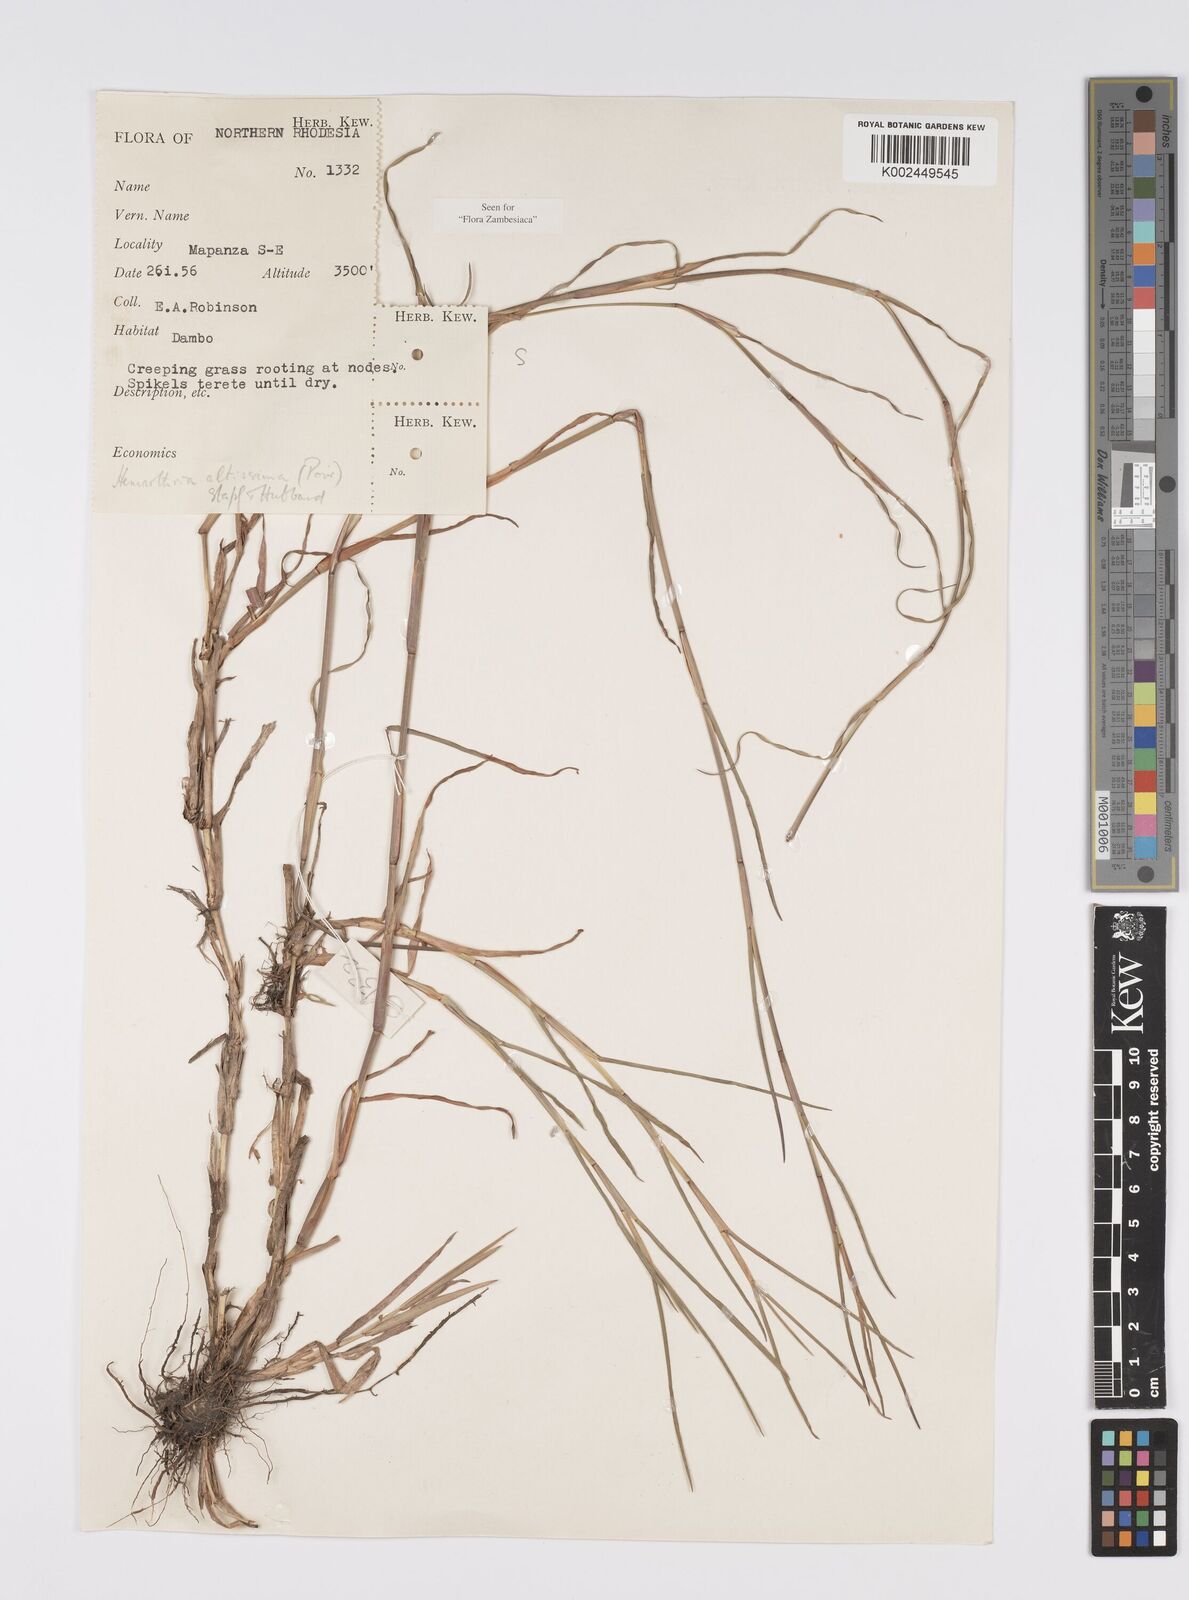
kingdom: Plantae
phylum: Tracheophyta
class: Liliopsida
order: Poales
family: Poaceae
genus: Hemarthria
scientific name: Hemarthria altissima
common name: African jointgrass
